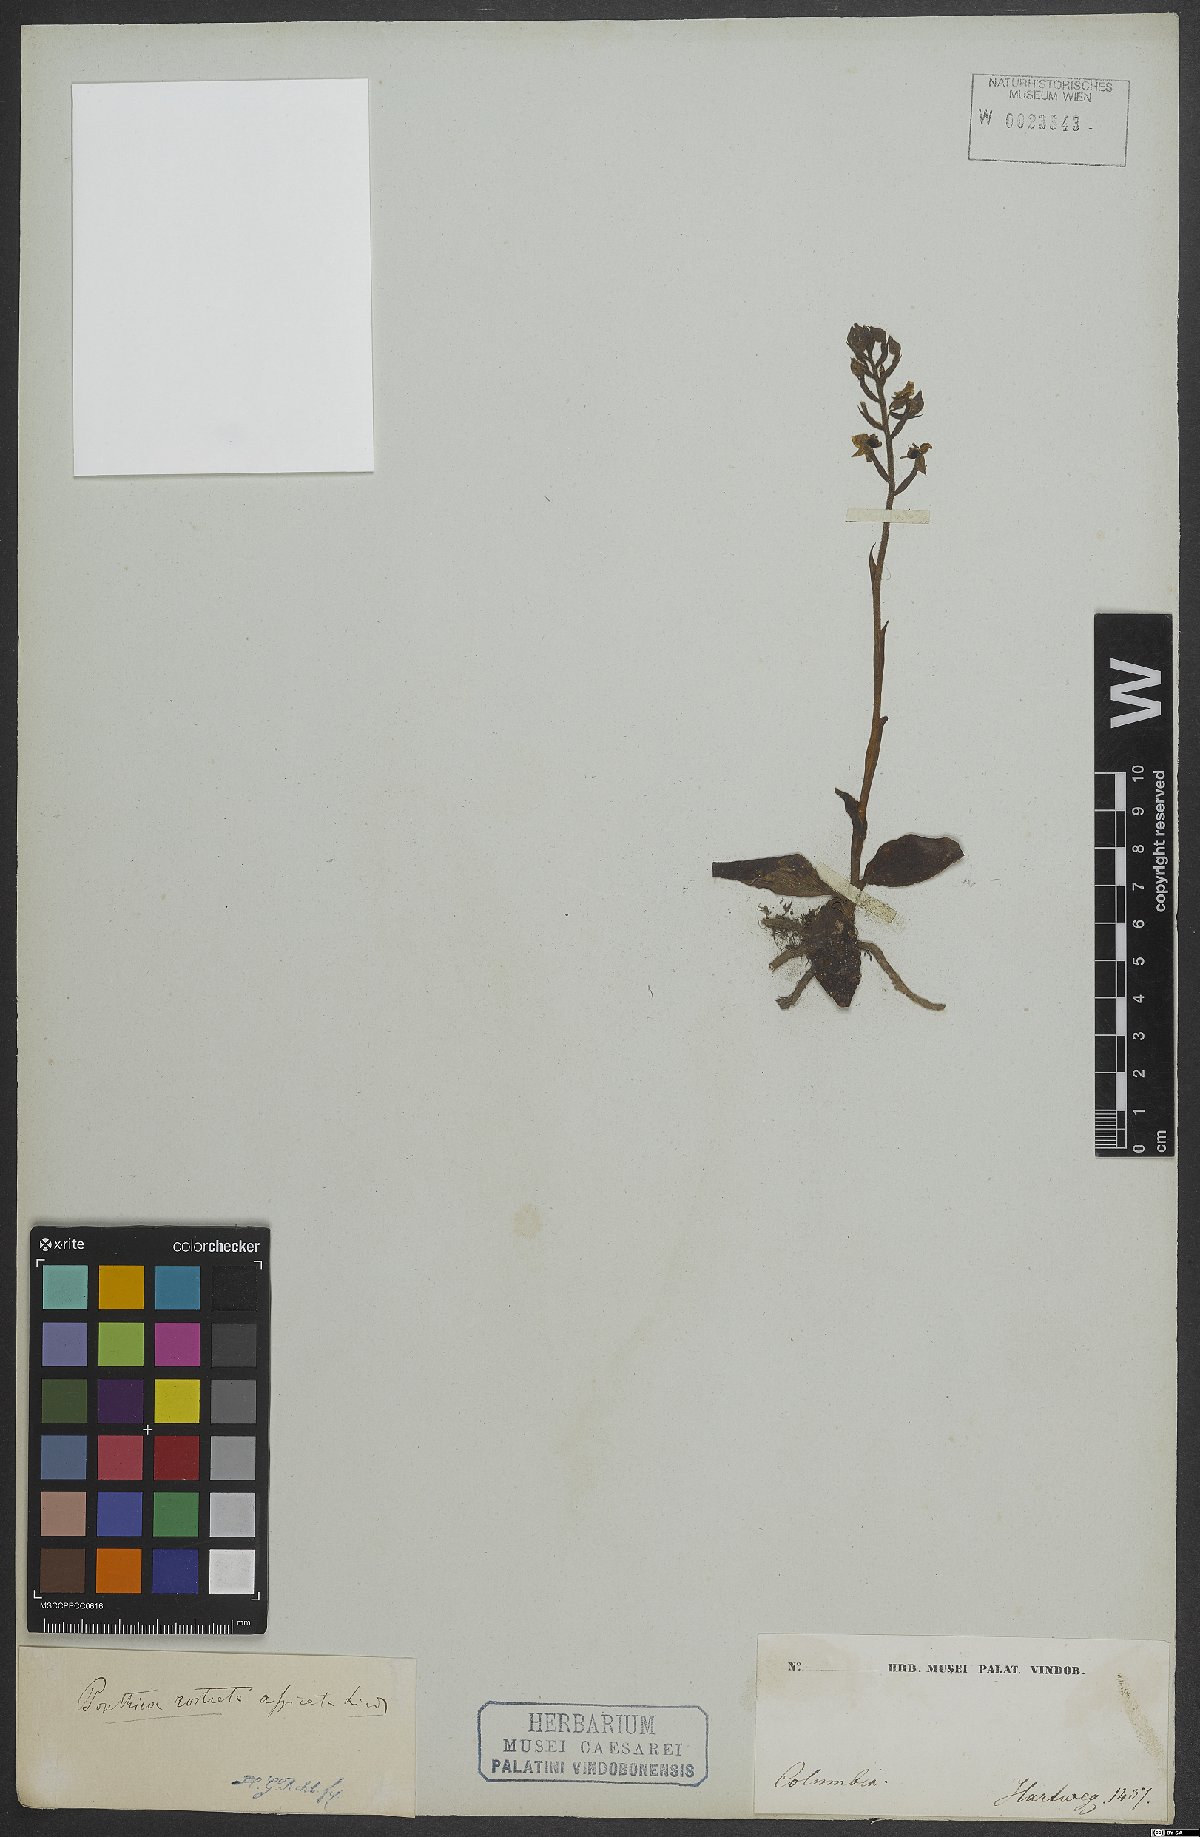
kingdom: Plantae
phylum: Tracheophyta
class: Liliopsida
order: Asparagales
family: Orchidaceae
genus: Ponthieva
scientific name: Ponthieva rostrata
